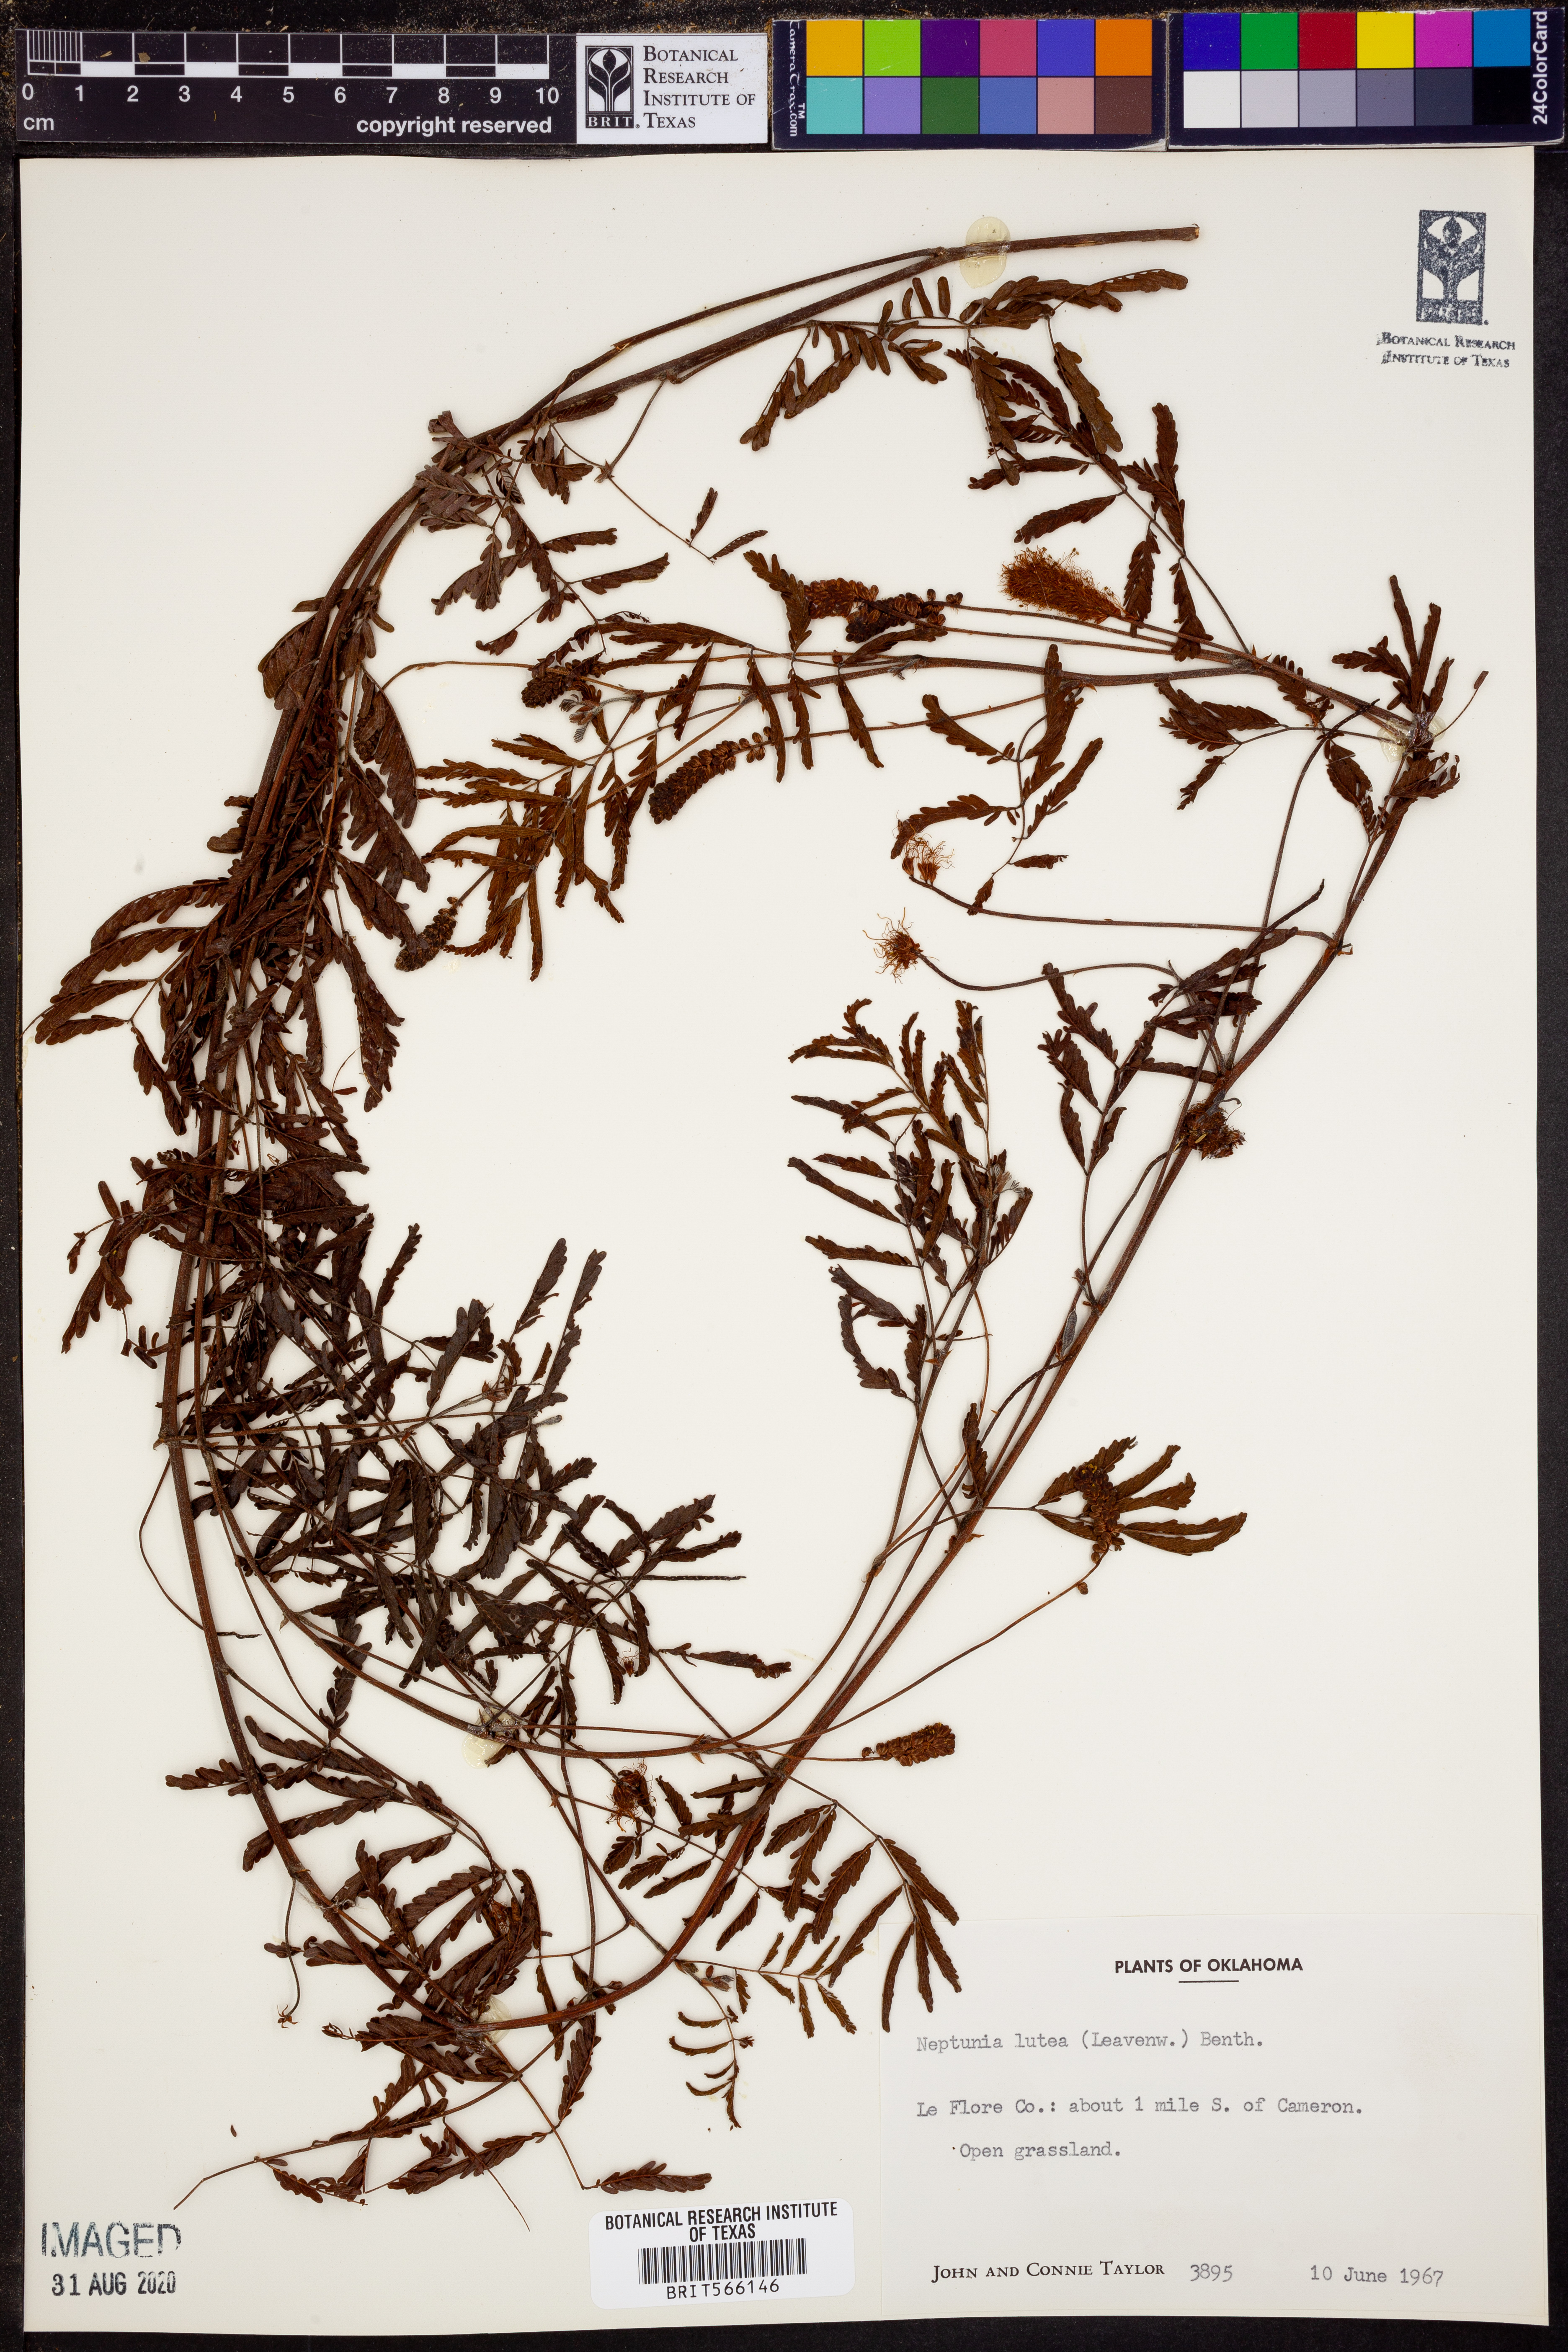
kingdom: Plantae
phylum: Tracheophyta
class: Magnoliopsida
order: Fabales
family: Fabaceae
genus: Neptunia
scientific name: Neptunia lutea
